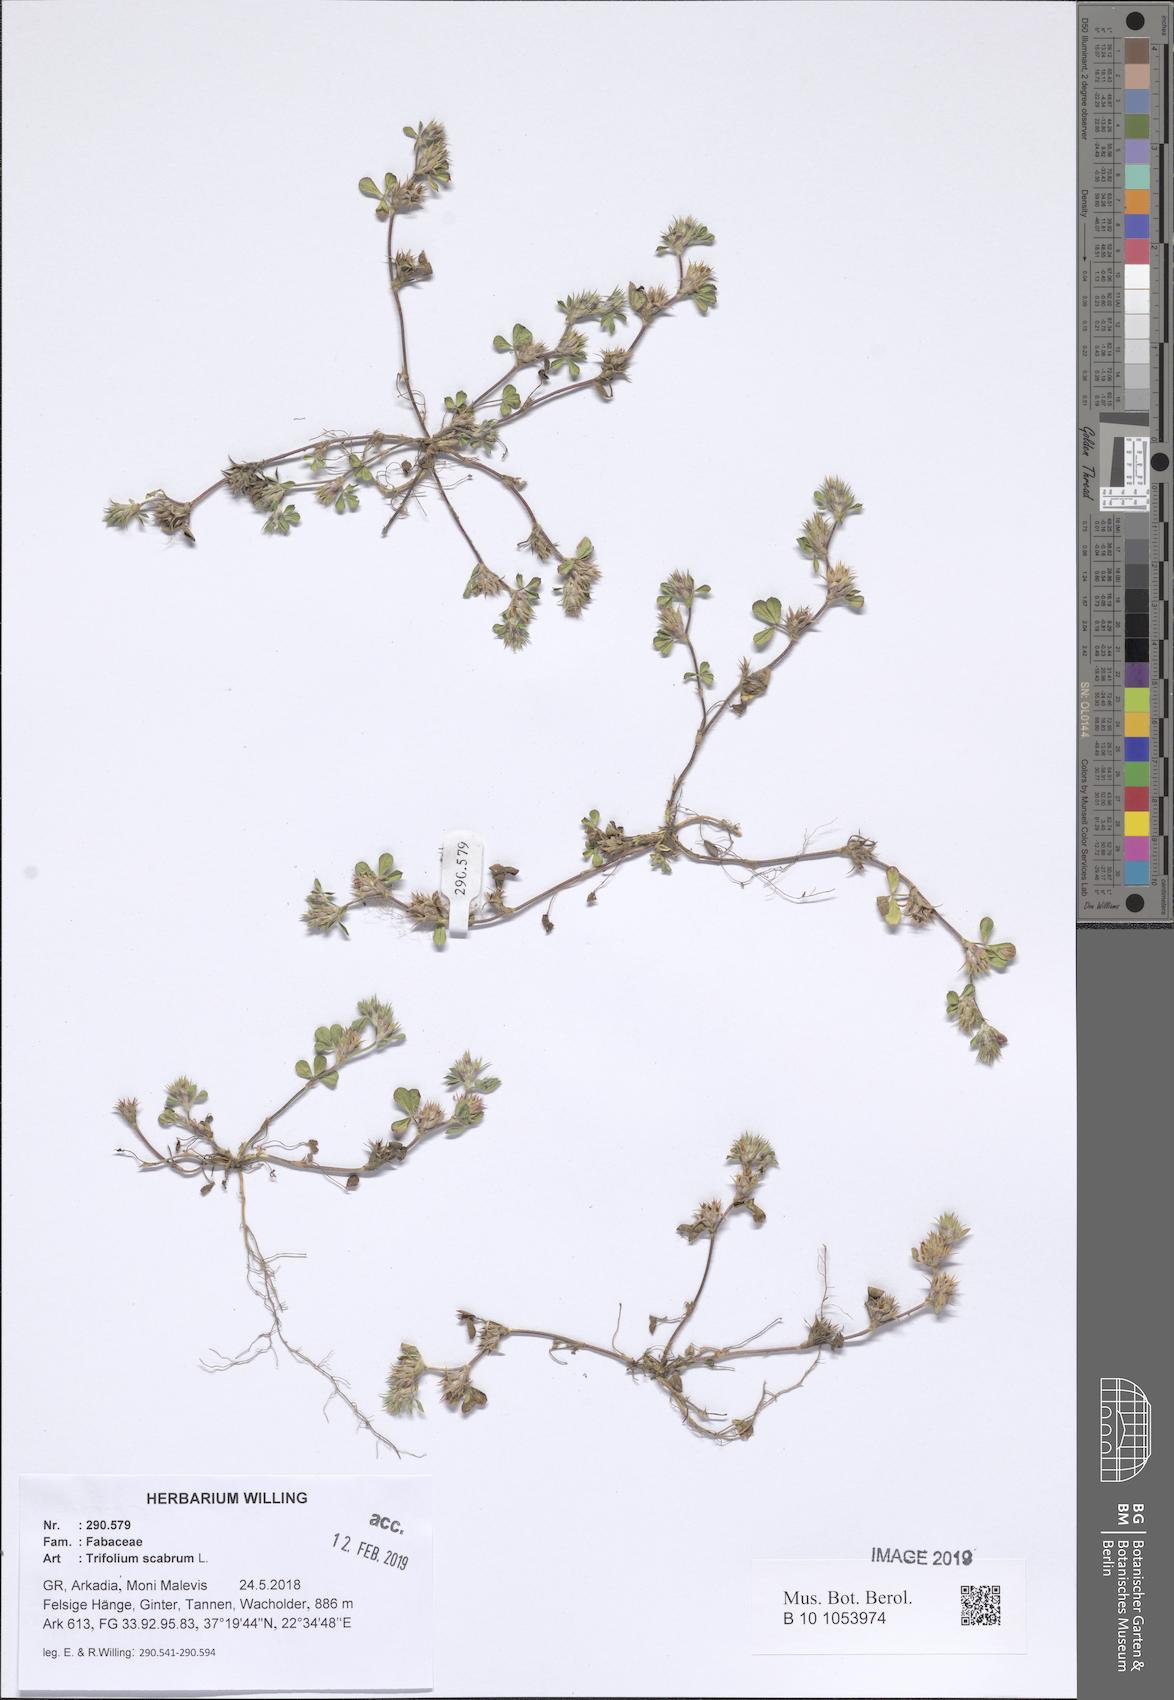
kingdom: Plantae
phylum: Tracheophyta
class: Magnoliopsida
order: Fabales
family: Fabaceae
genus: Trifolium
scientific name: Trifolium scabrum
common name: Rough clover
